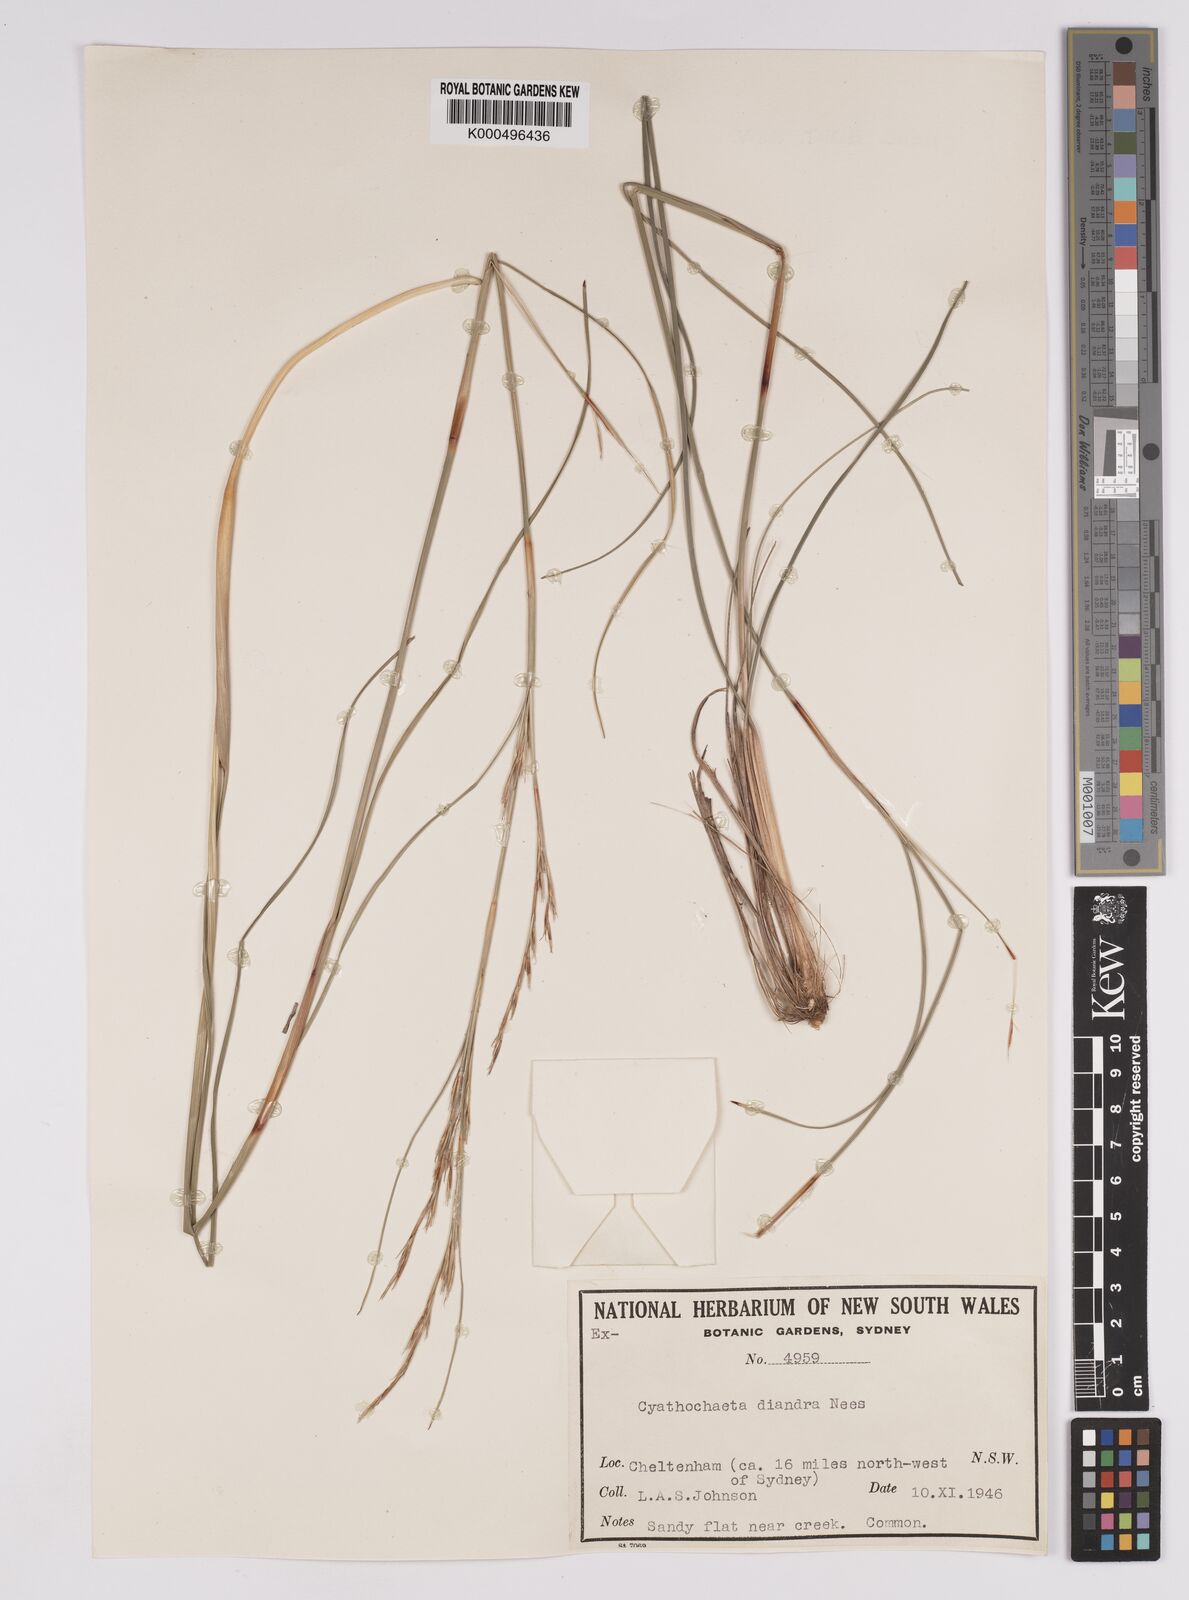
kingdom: Plantae
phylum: Tracheophyta
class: Liliopsida
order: Poales
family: Cyperaceae
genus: Cyathochaeta
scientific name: Cyathochaeta diandra
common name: Sheath rush
